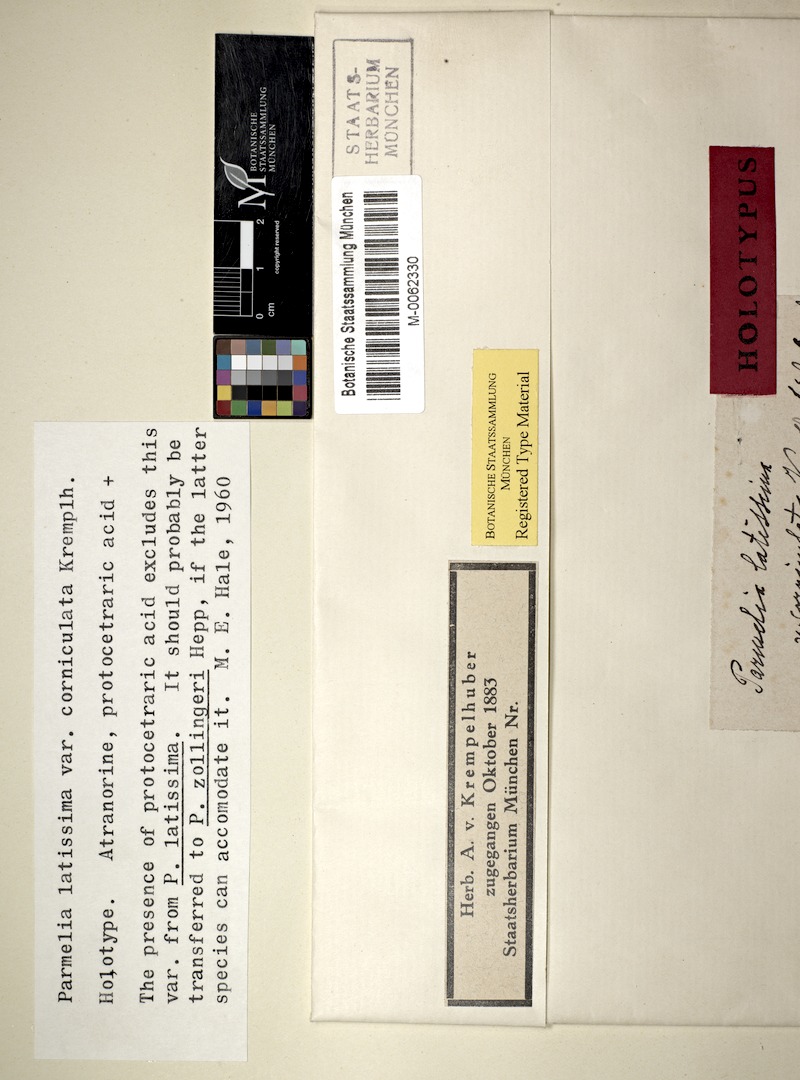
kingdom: Fungi
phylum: Ascomycota
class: Lecanoromycetes
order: Lecanorales
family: Parmeliaceae
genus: Parmotrema
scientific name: Parmotrema zollingeri
